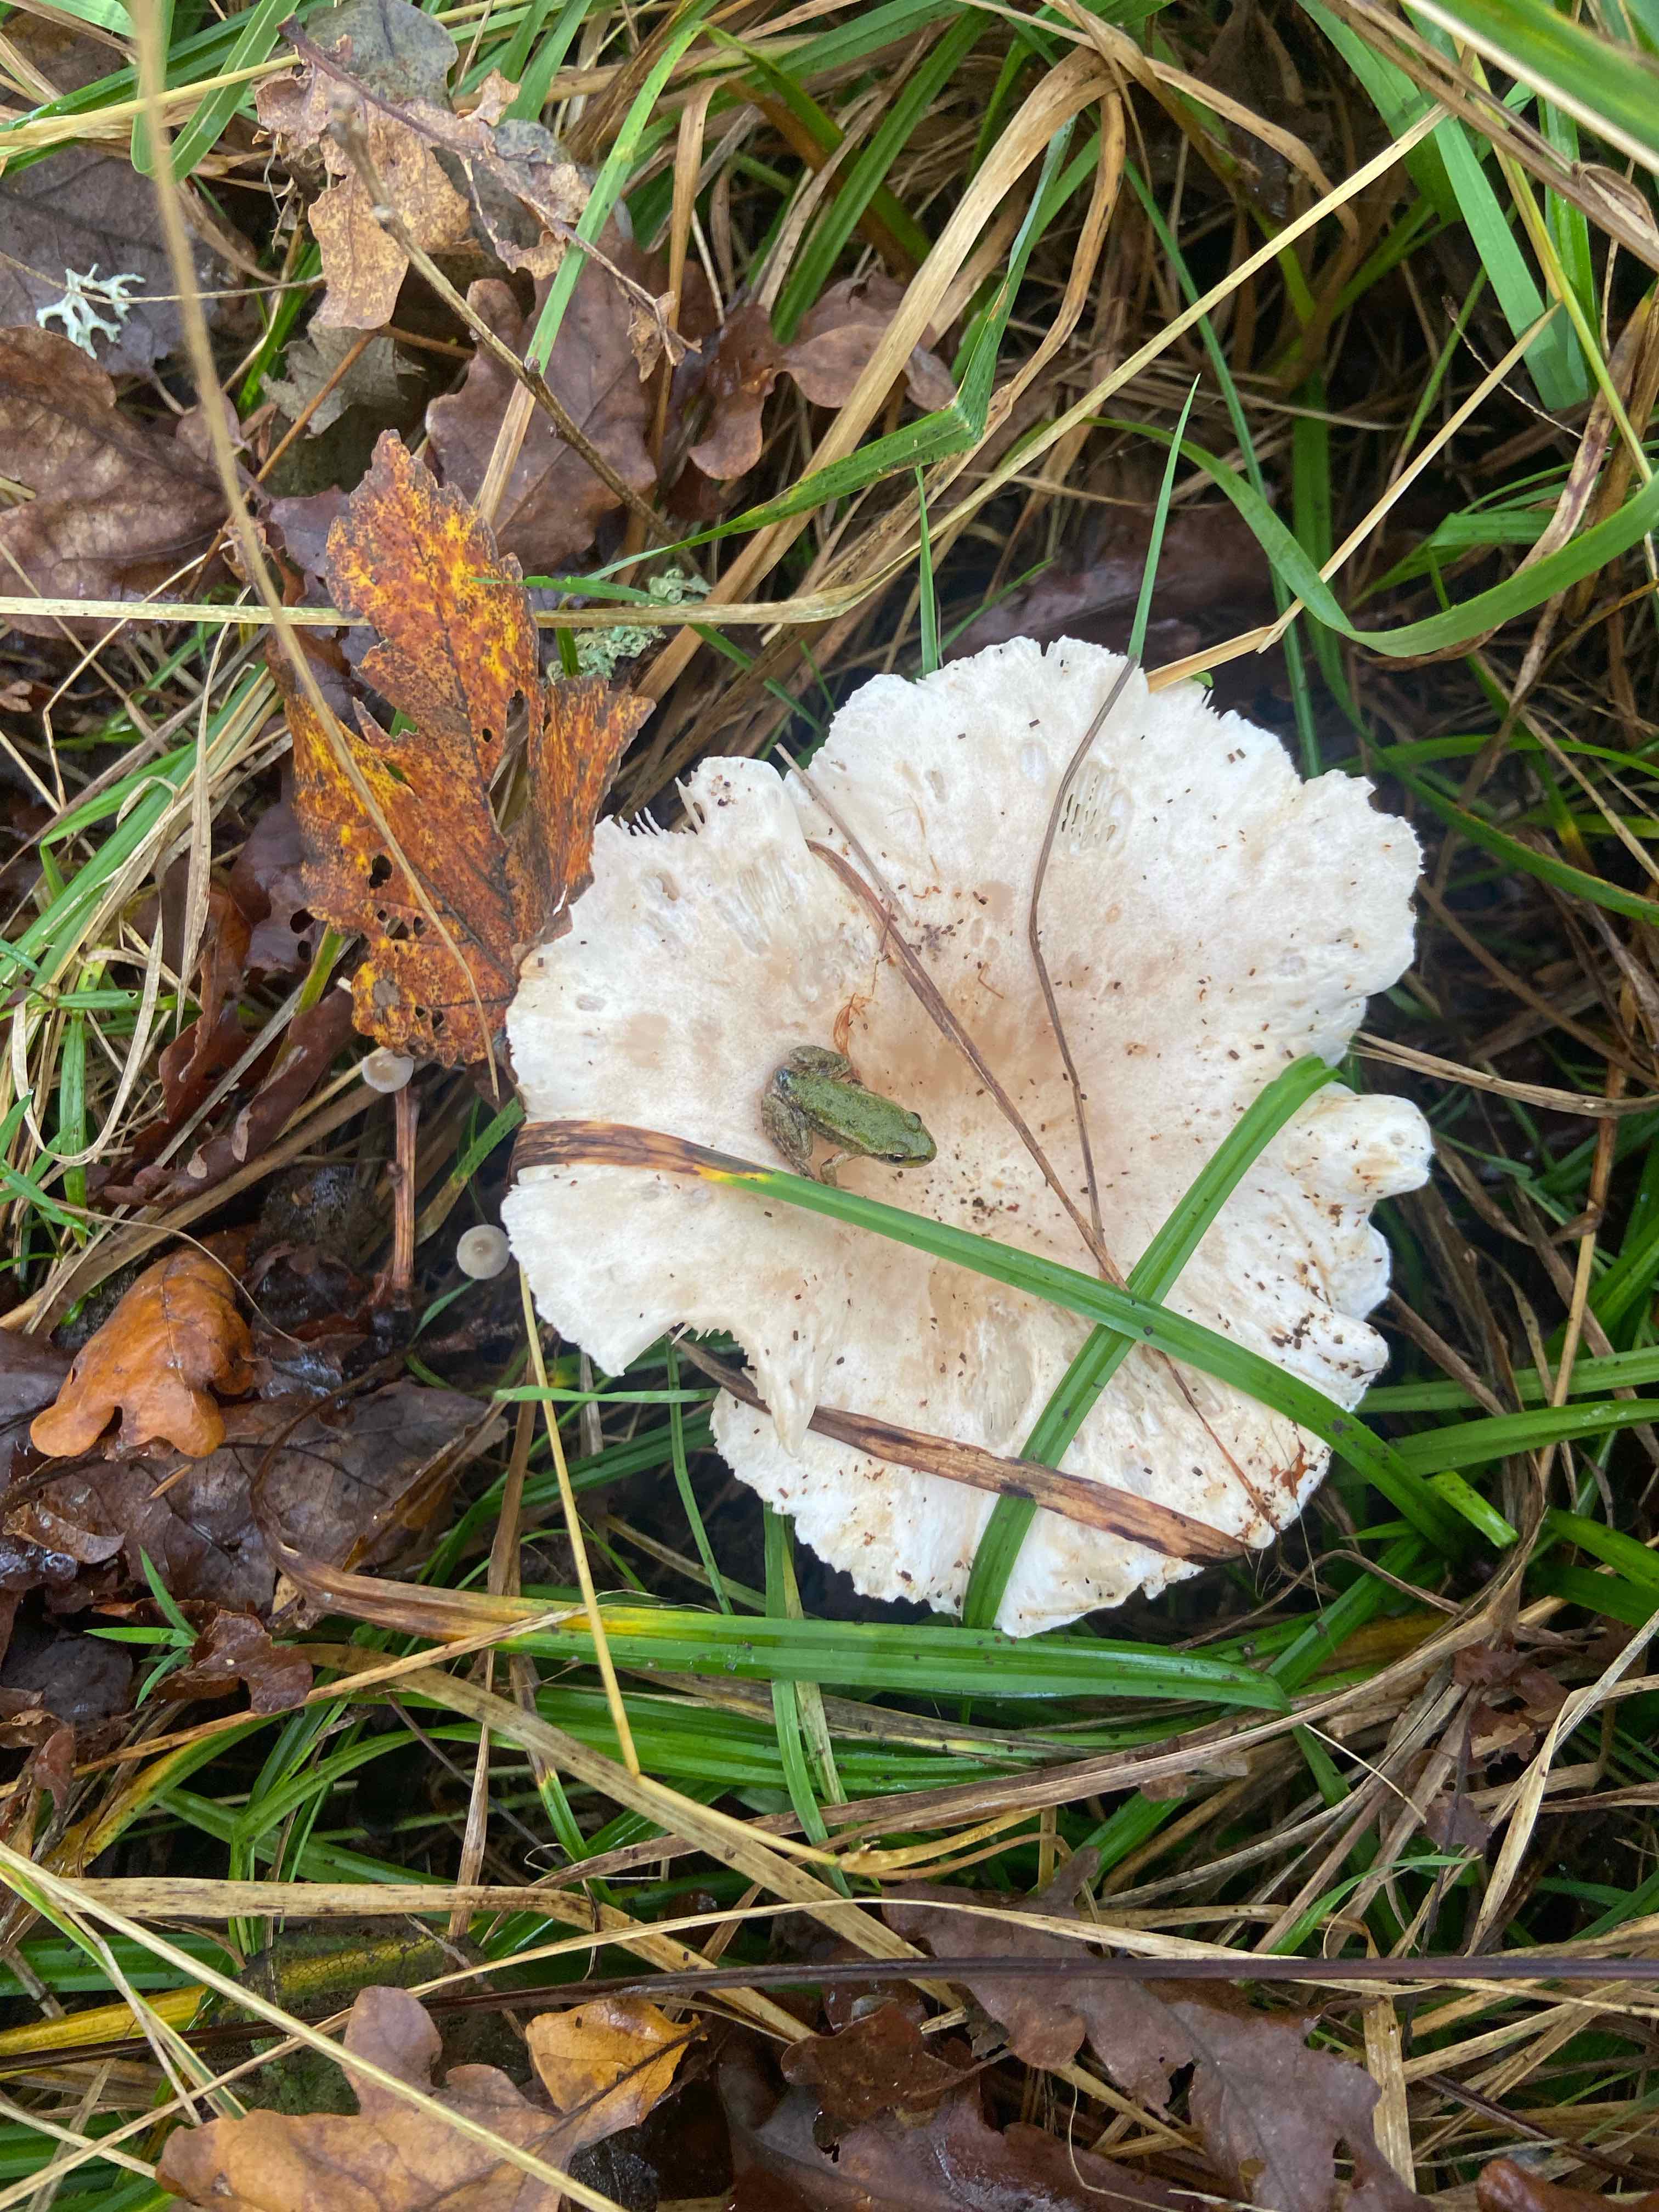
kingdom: Fungi
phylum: Basidiomycota
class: Agaricomycetes
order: Agaricales
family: Tricholomataceae
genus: Infundibulicybe
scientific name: Infundibulicybe geotropa
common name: stor tragthat
